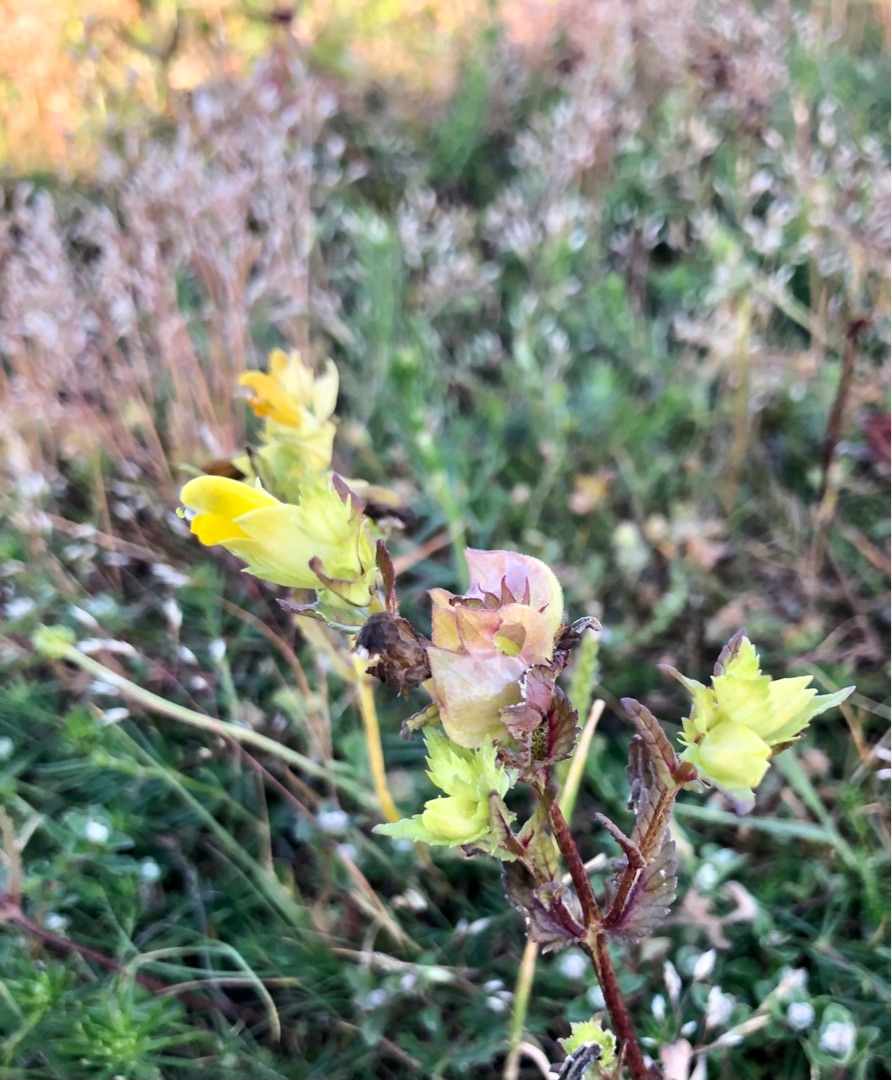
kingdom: Plantae
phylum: Tracheophyta
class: Magnoliopsida
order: Lamiales
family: Orobanchaceae
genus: Rhinanthus
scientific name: Rhinanthus
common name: Stor skjaller
